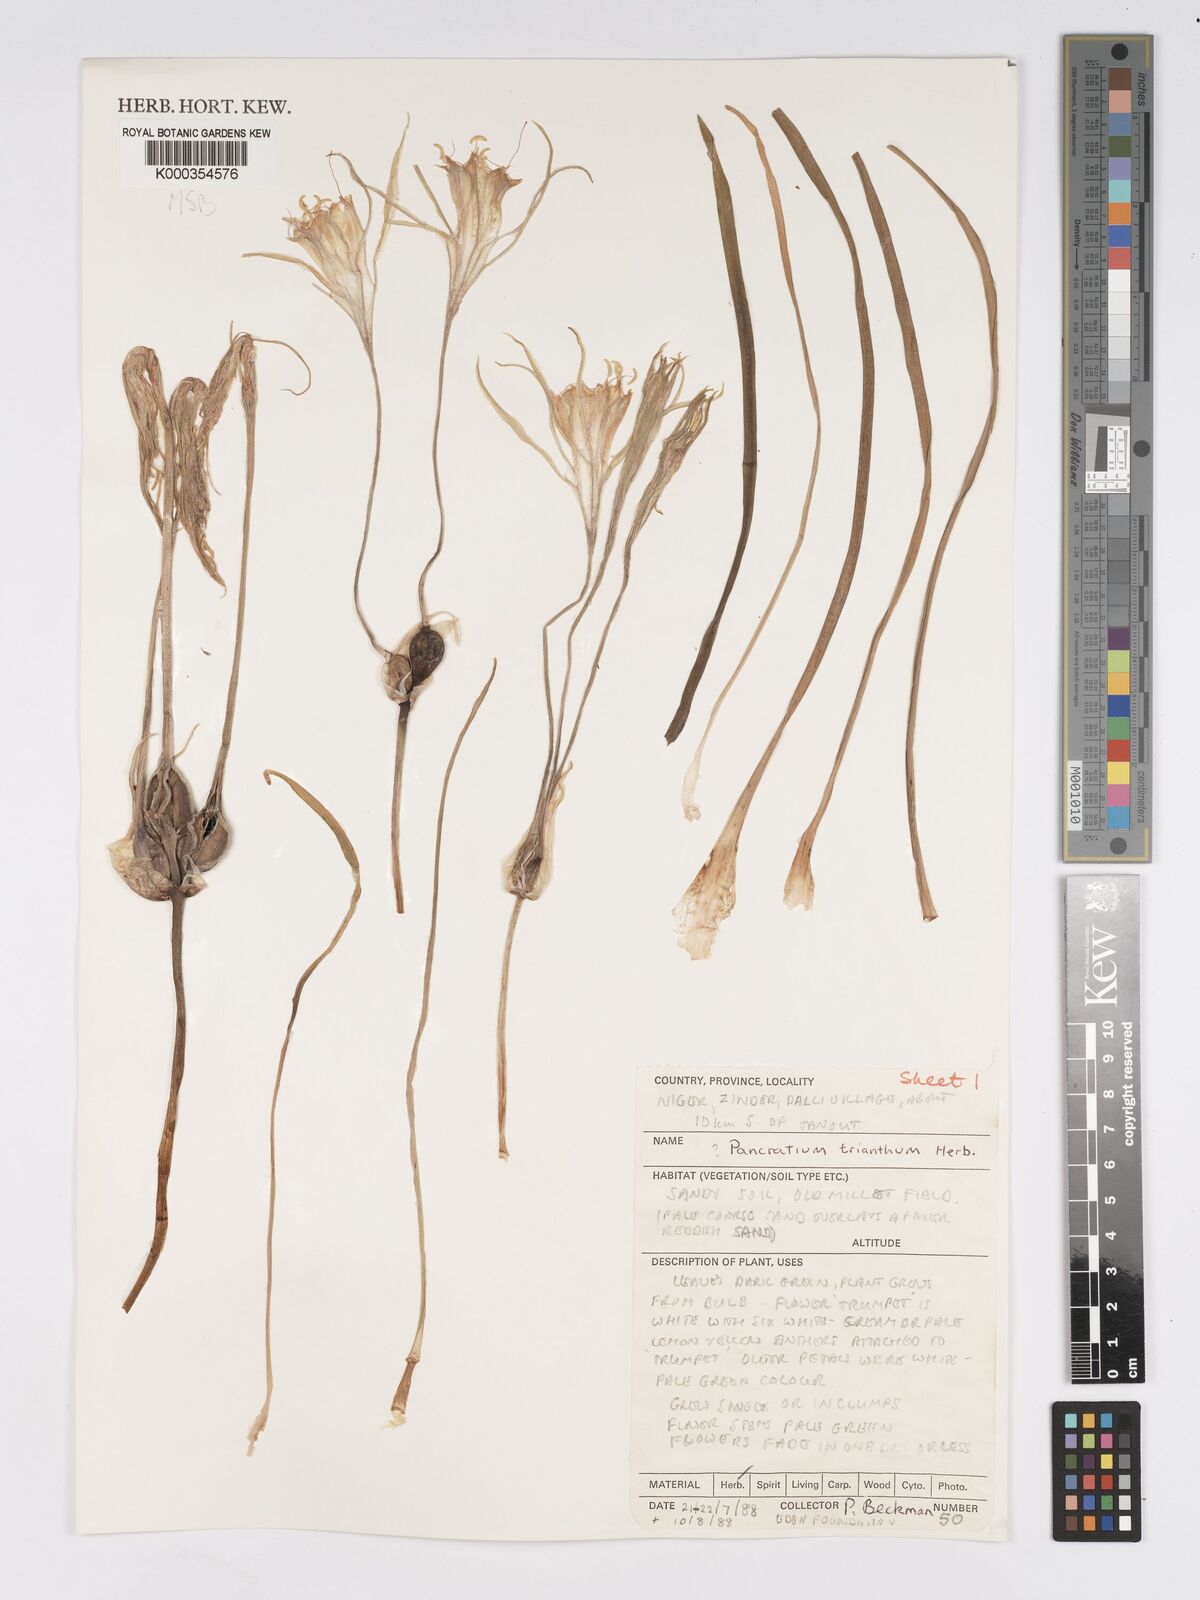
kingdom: Plantae
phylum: Tracheophyta
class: Liliopsida
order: Asparagales
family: Amaryllidaceae
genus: Pancratium
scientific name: Pancratium trianthum
